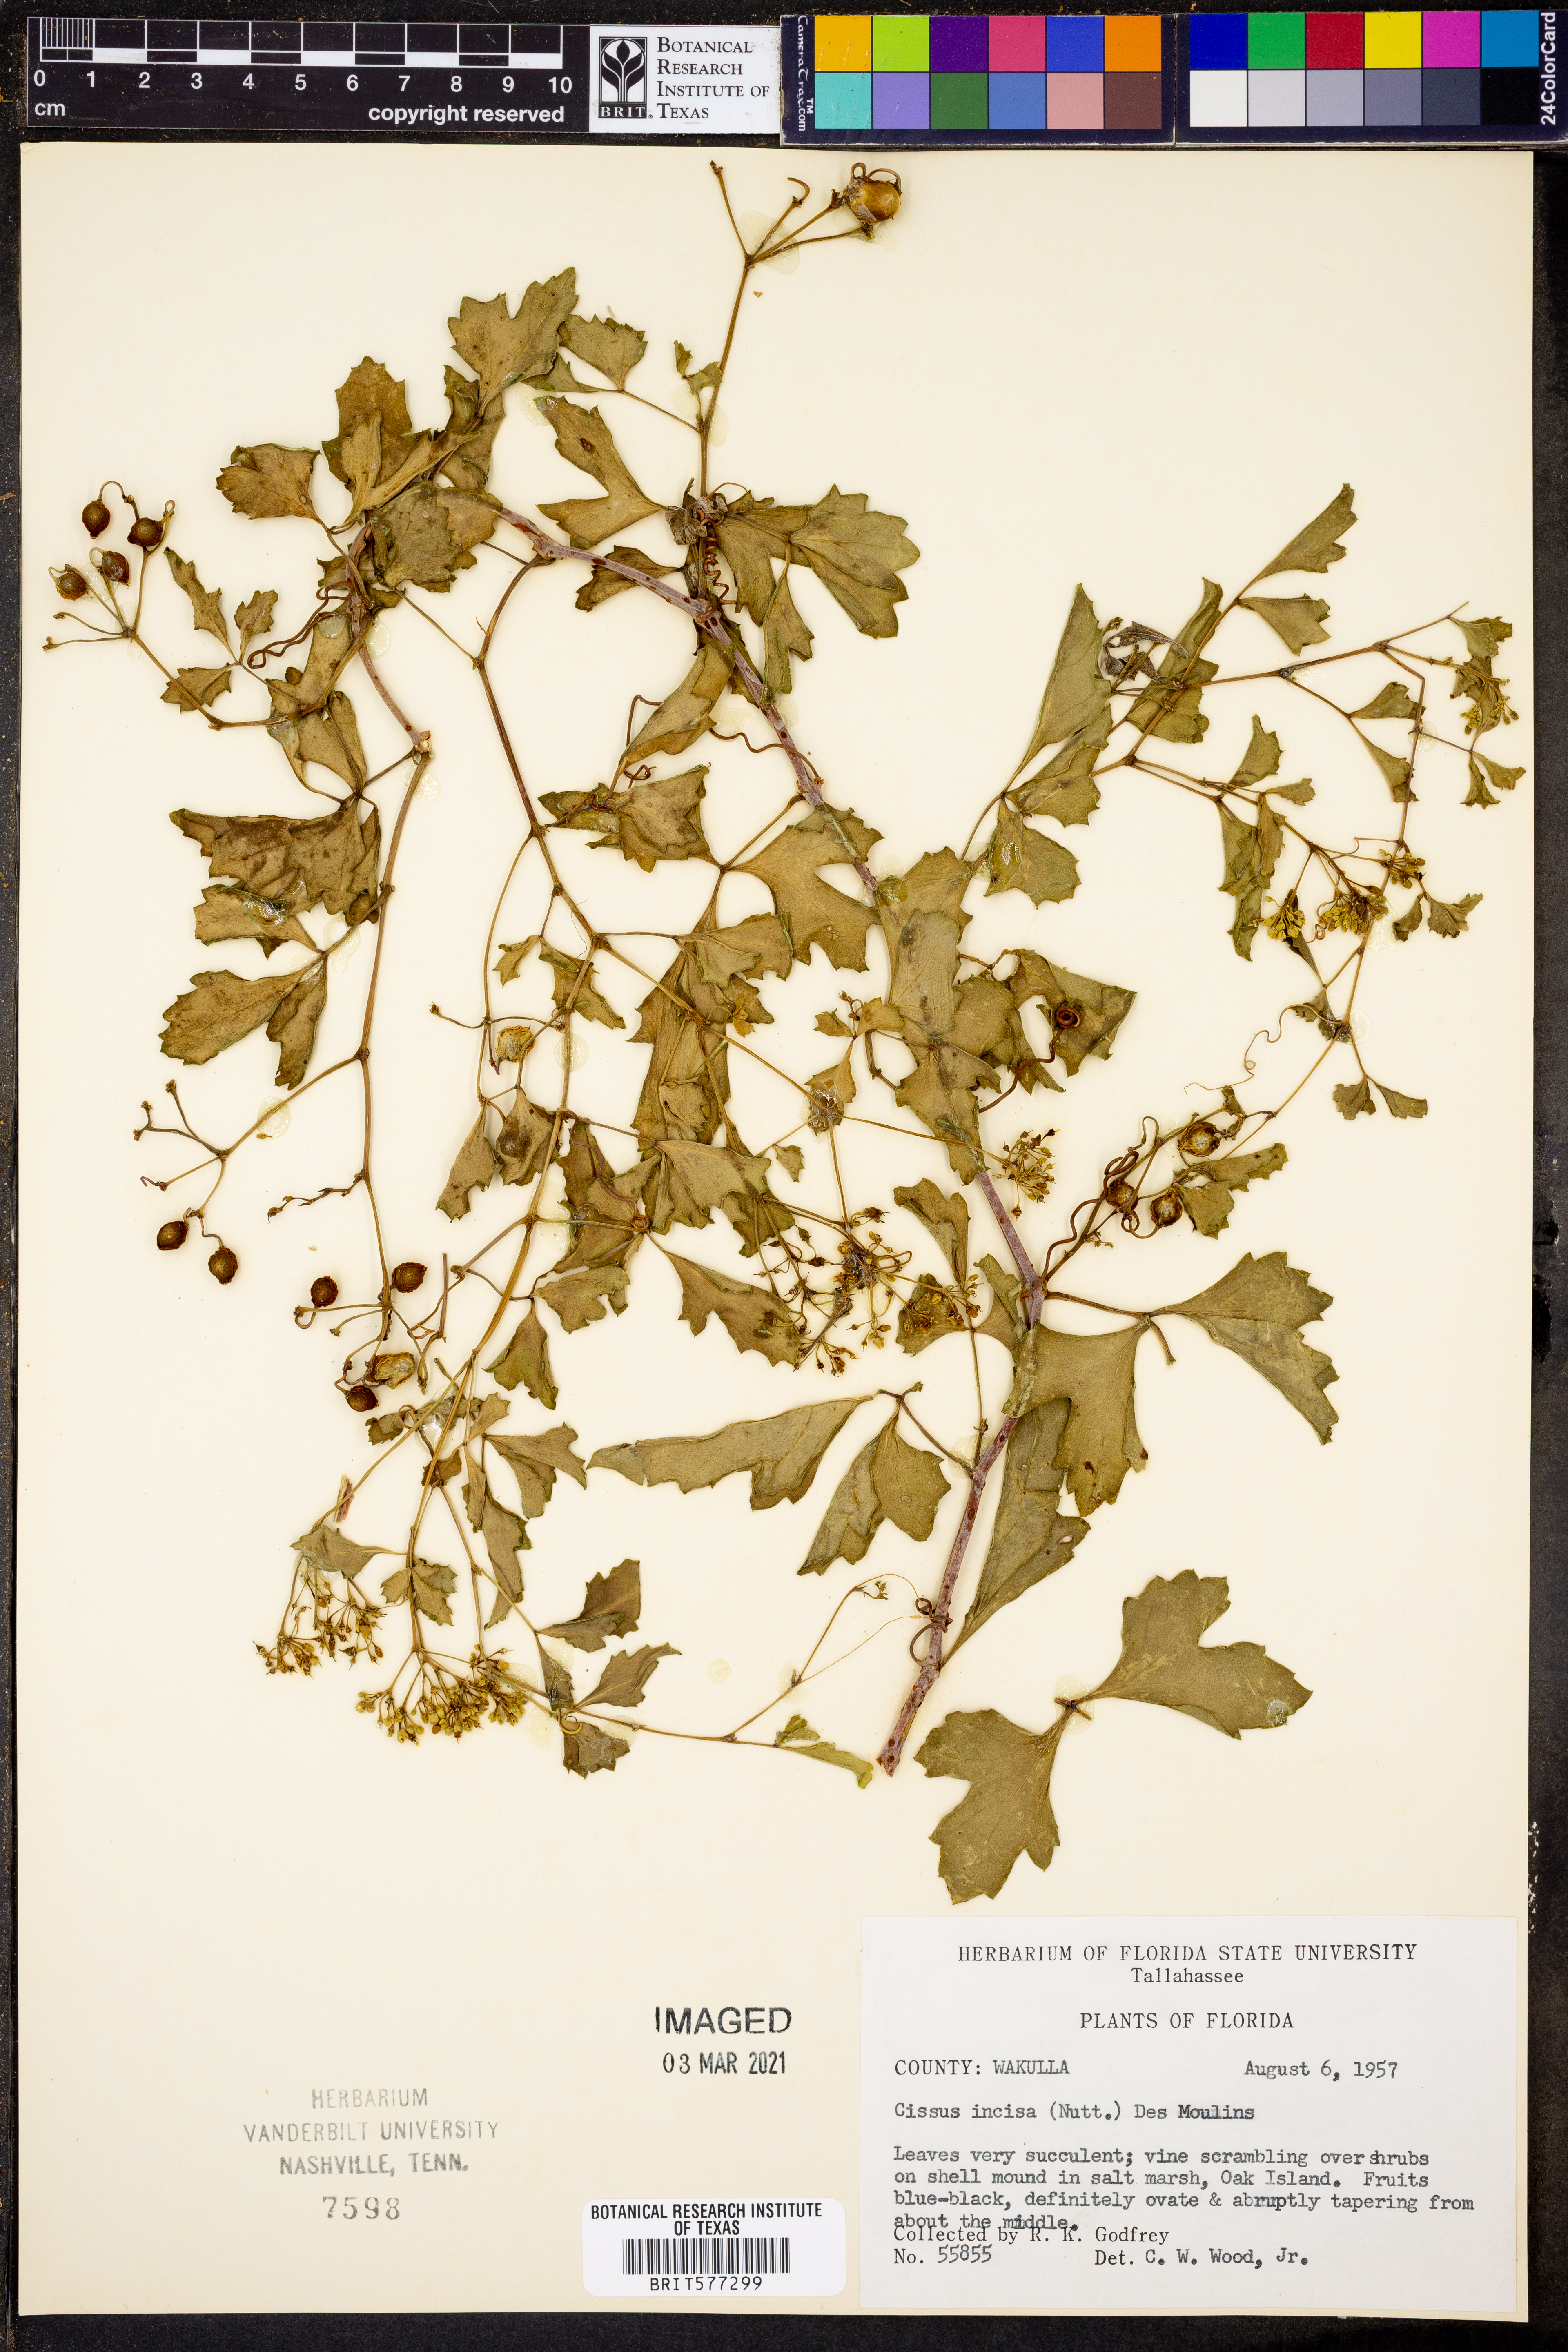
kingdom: Plantae
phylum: Tracheophyta
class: Magnoliopsida
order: Vitales
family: Vitaceae
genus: Cissus
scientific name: Cissus trifoliata
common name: Vine-sorrel
